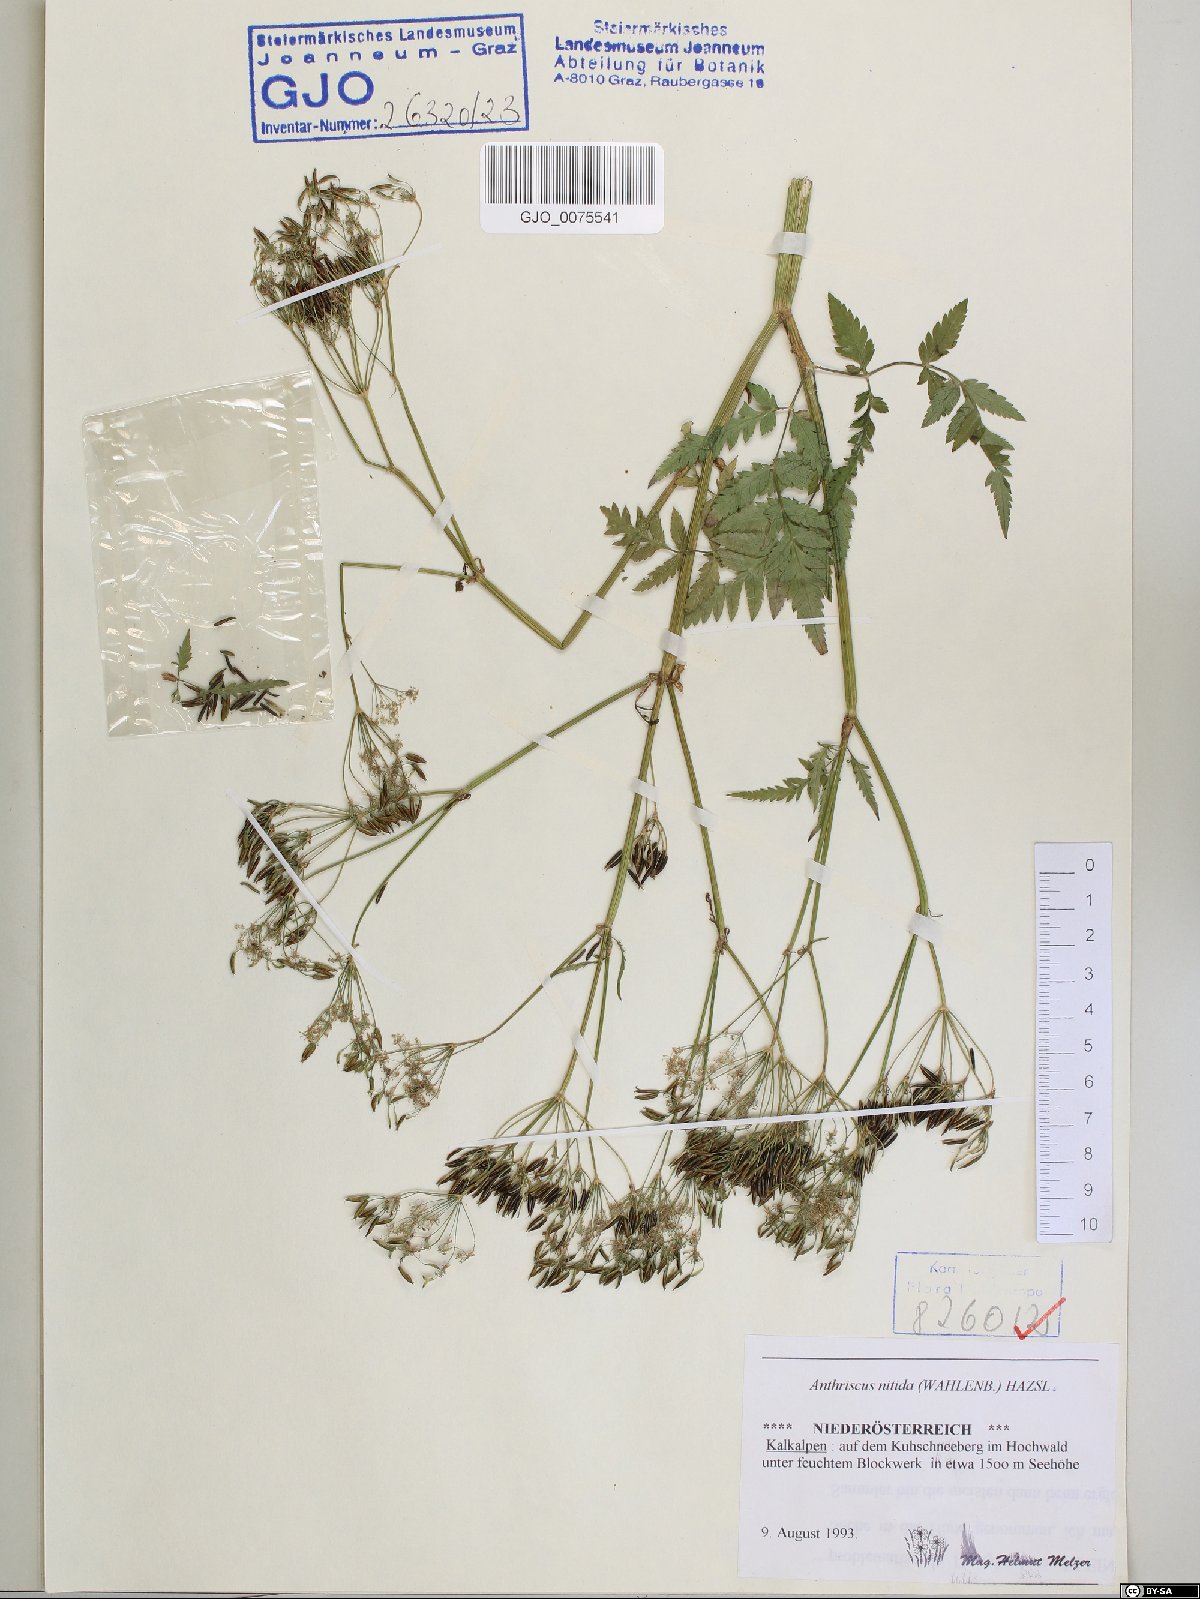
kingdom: Plantae
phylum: Tracheophyta
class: Magnoliopsida
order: Apiales
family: Apiaceae
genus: Anthriscus
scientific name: Anthriscus nitida
